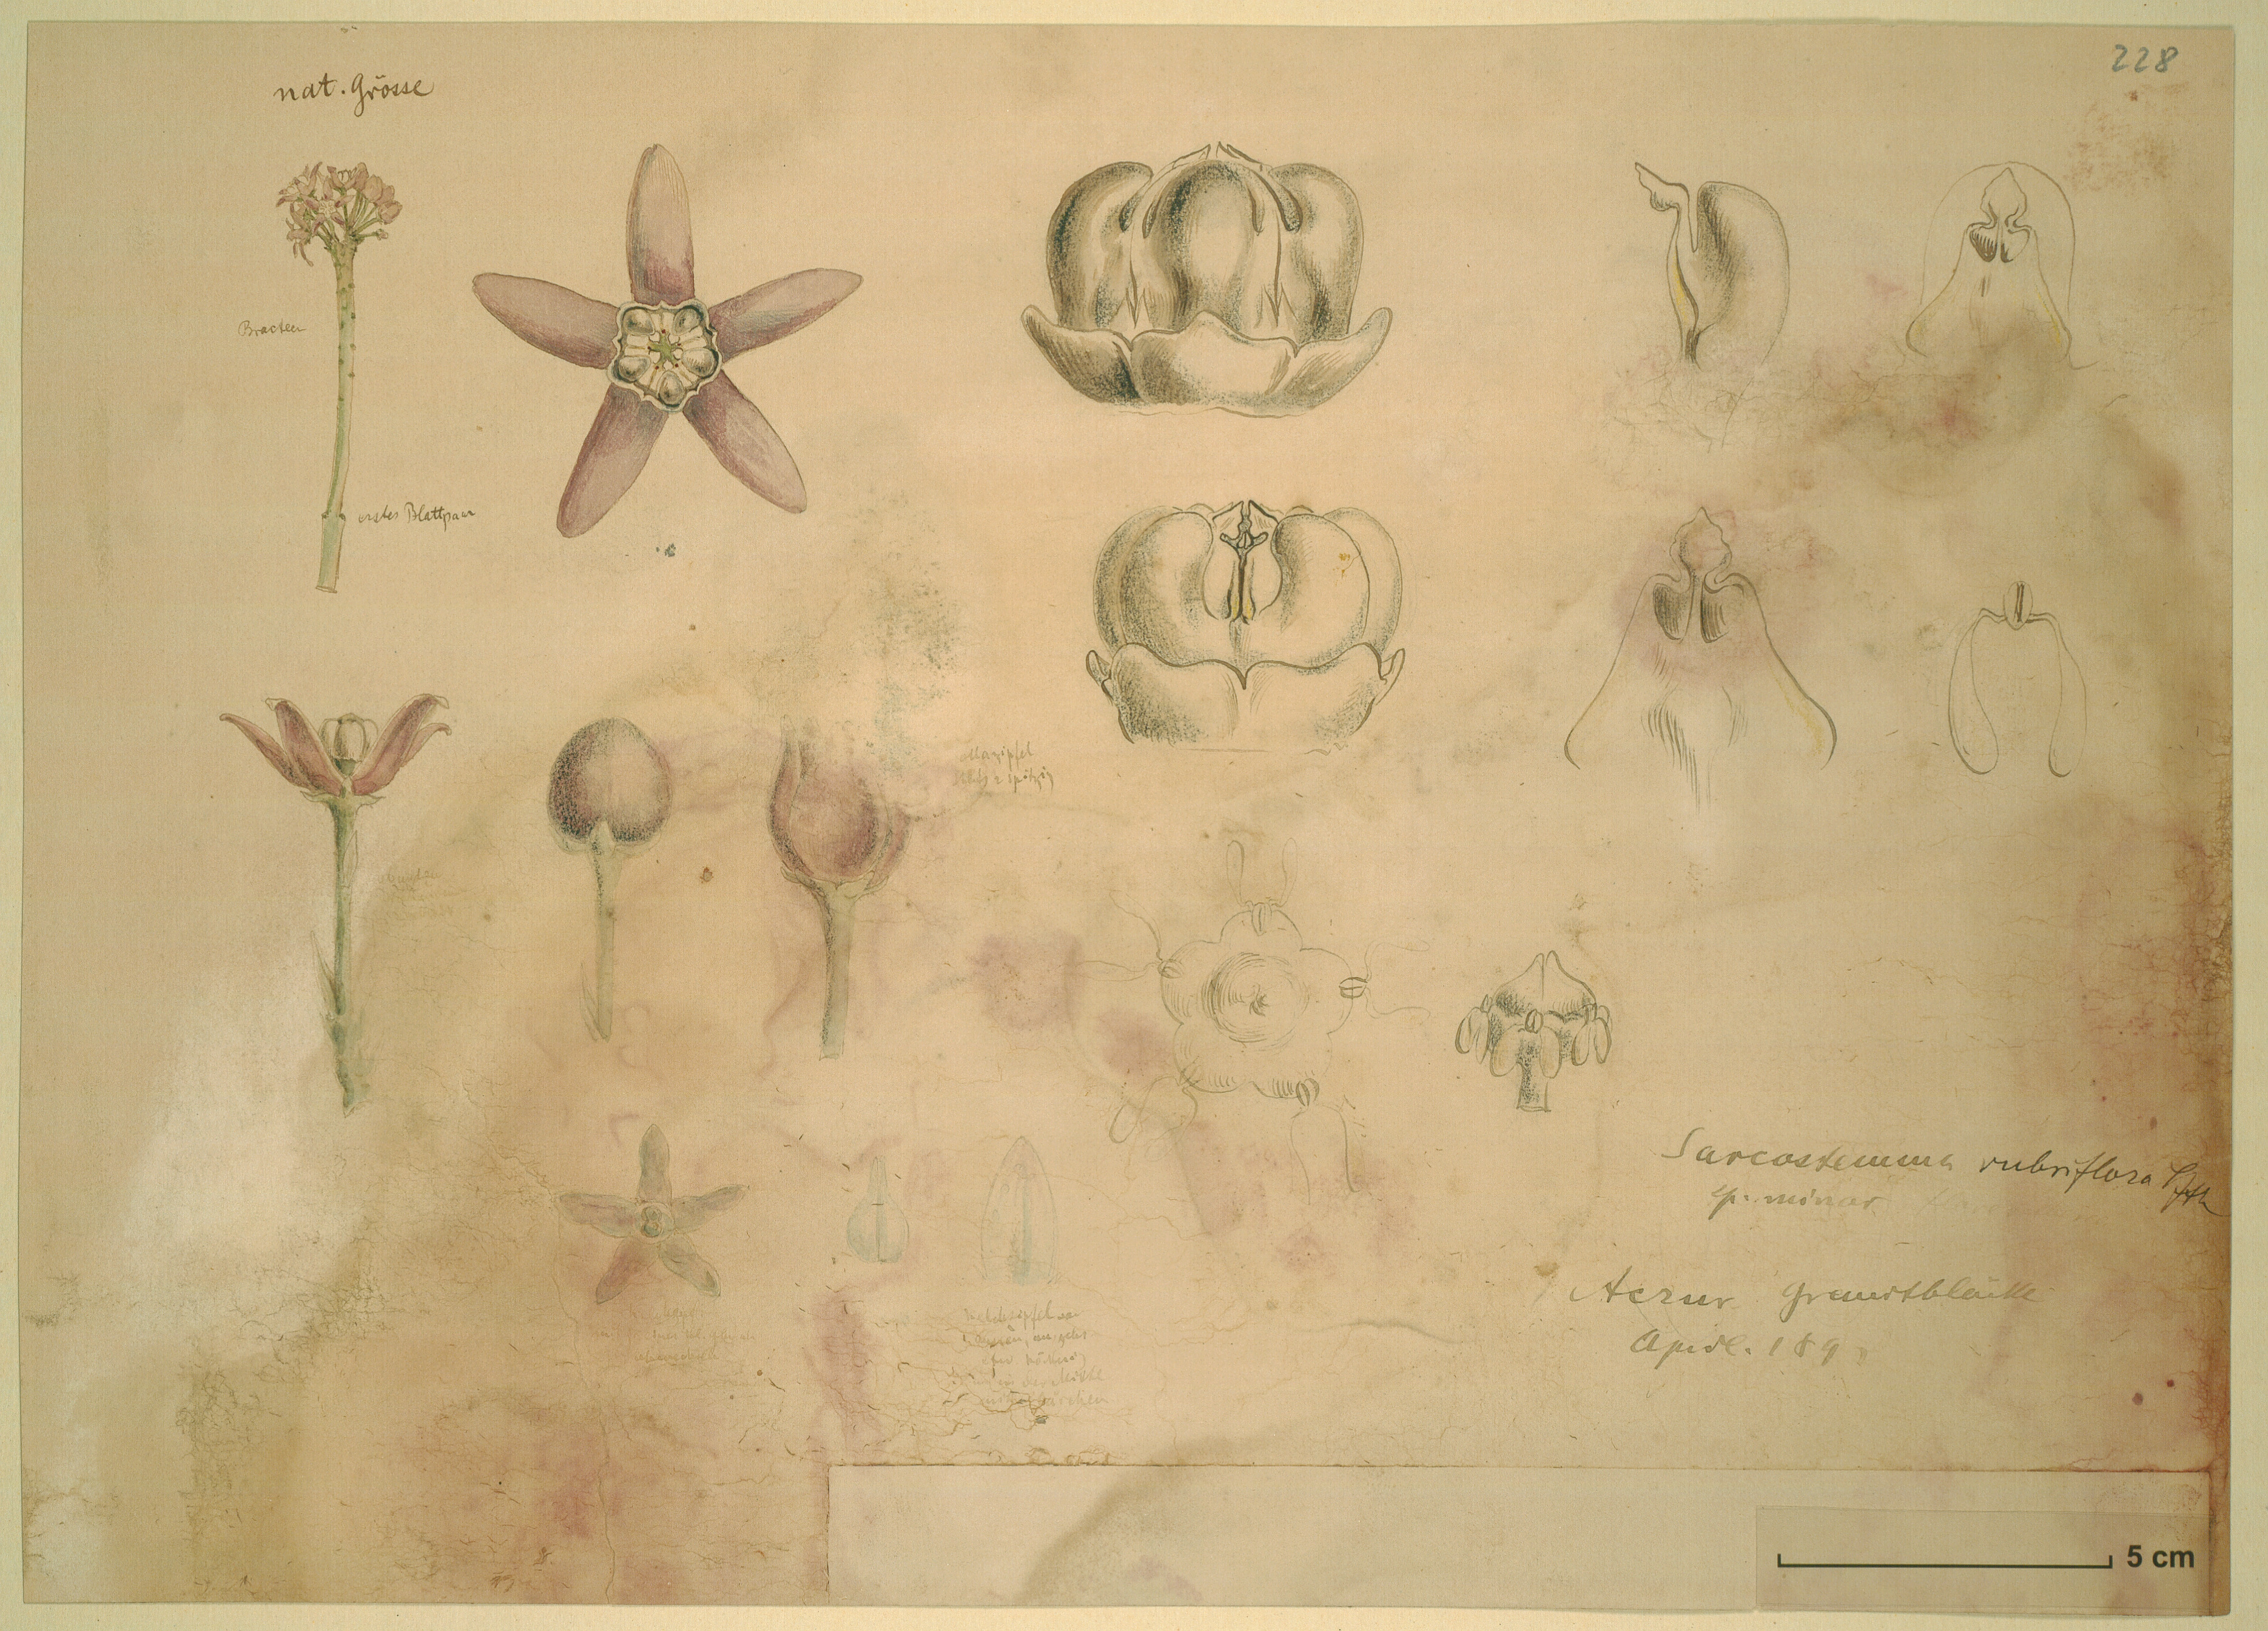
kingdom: Plantae
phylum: Tracheophyta
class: Magnoliopsida
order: Gentianales
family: Apocynaceae
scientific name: Apocynaceae
